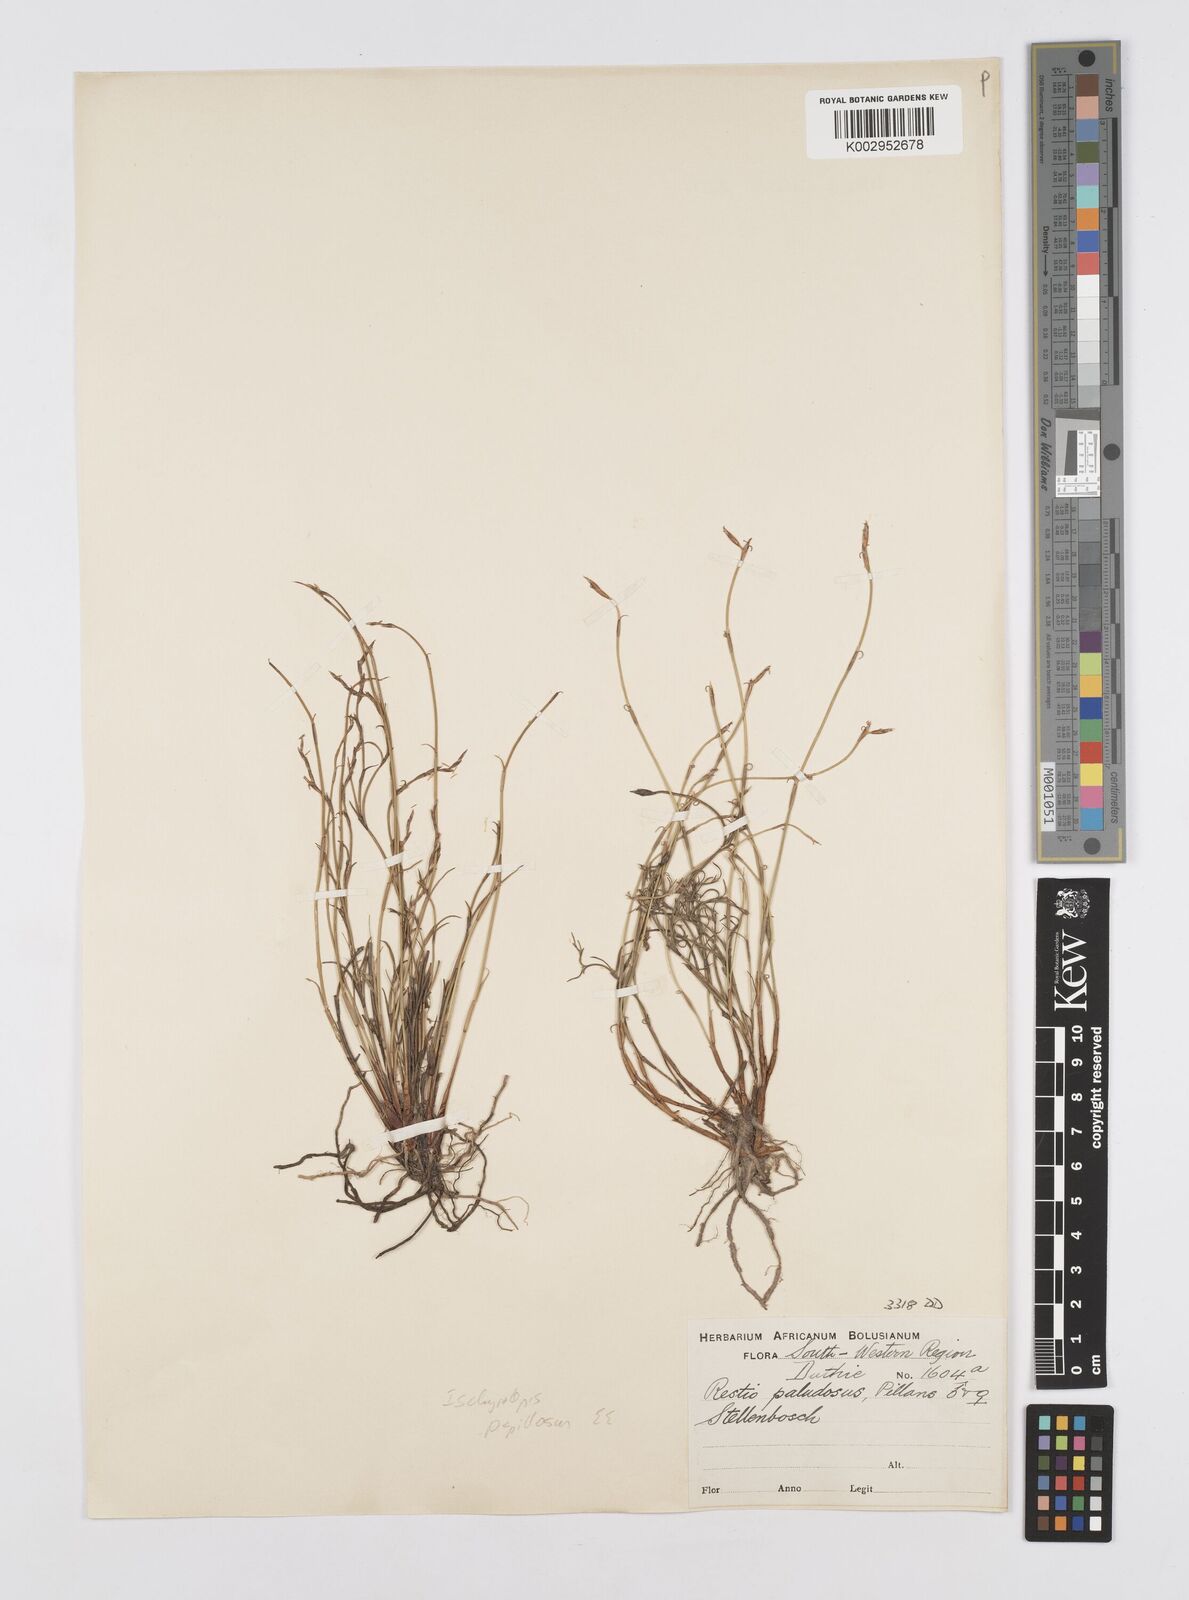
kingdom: Plantae
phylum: Tracheophyta
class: Liliopsida
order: Poales
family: Restionaceae
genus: Restio
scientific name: Restio longiaristatus
